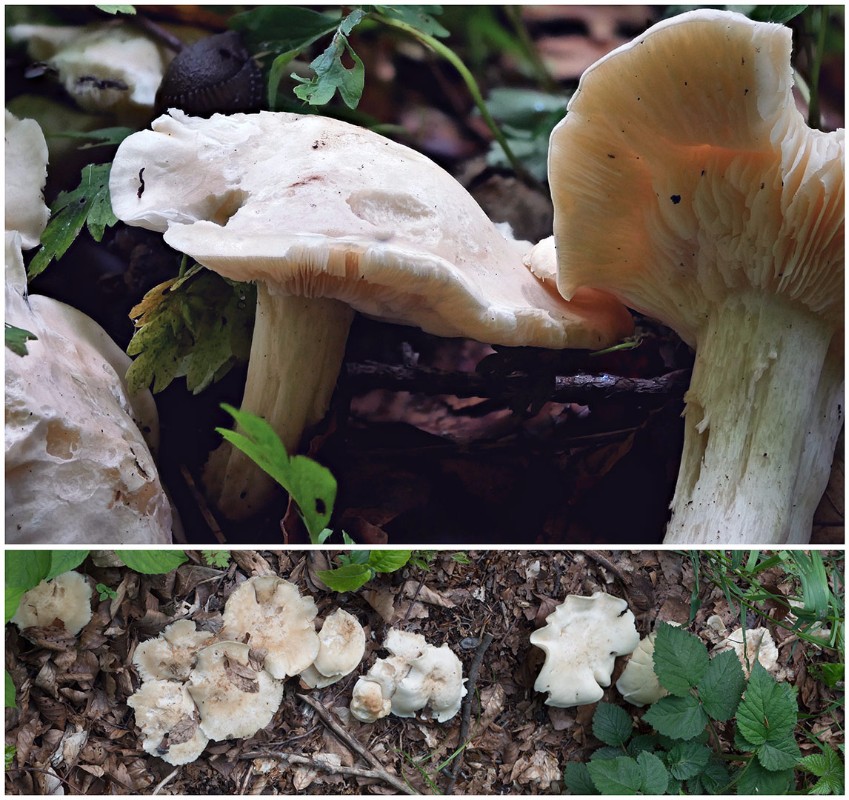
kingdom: Fungi
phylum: Basidiomycota
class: Agaricomycetes
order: Agaricales
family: Lyophyllaceae
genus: Calocybe
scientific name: Calocybe gambosa
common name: vårmusseron
